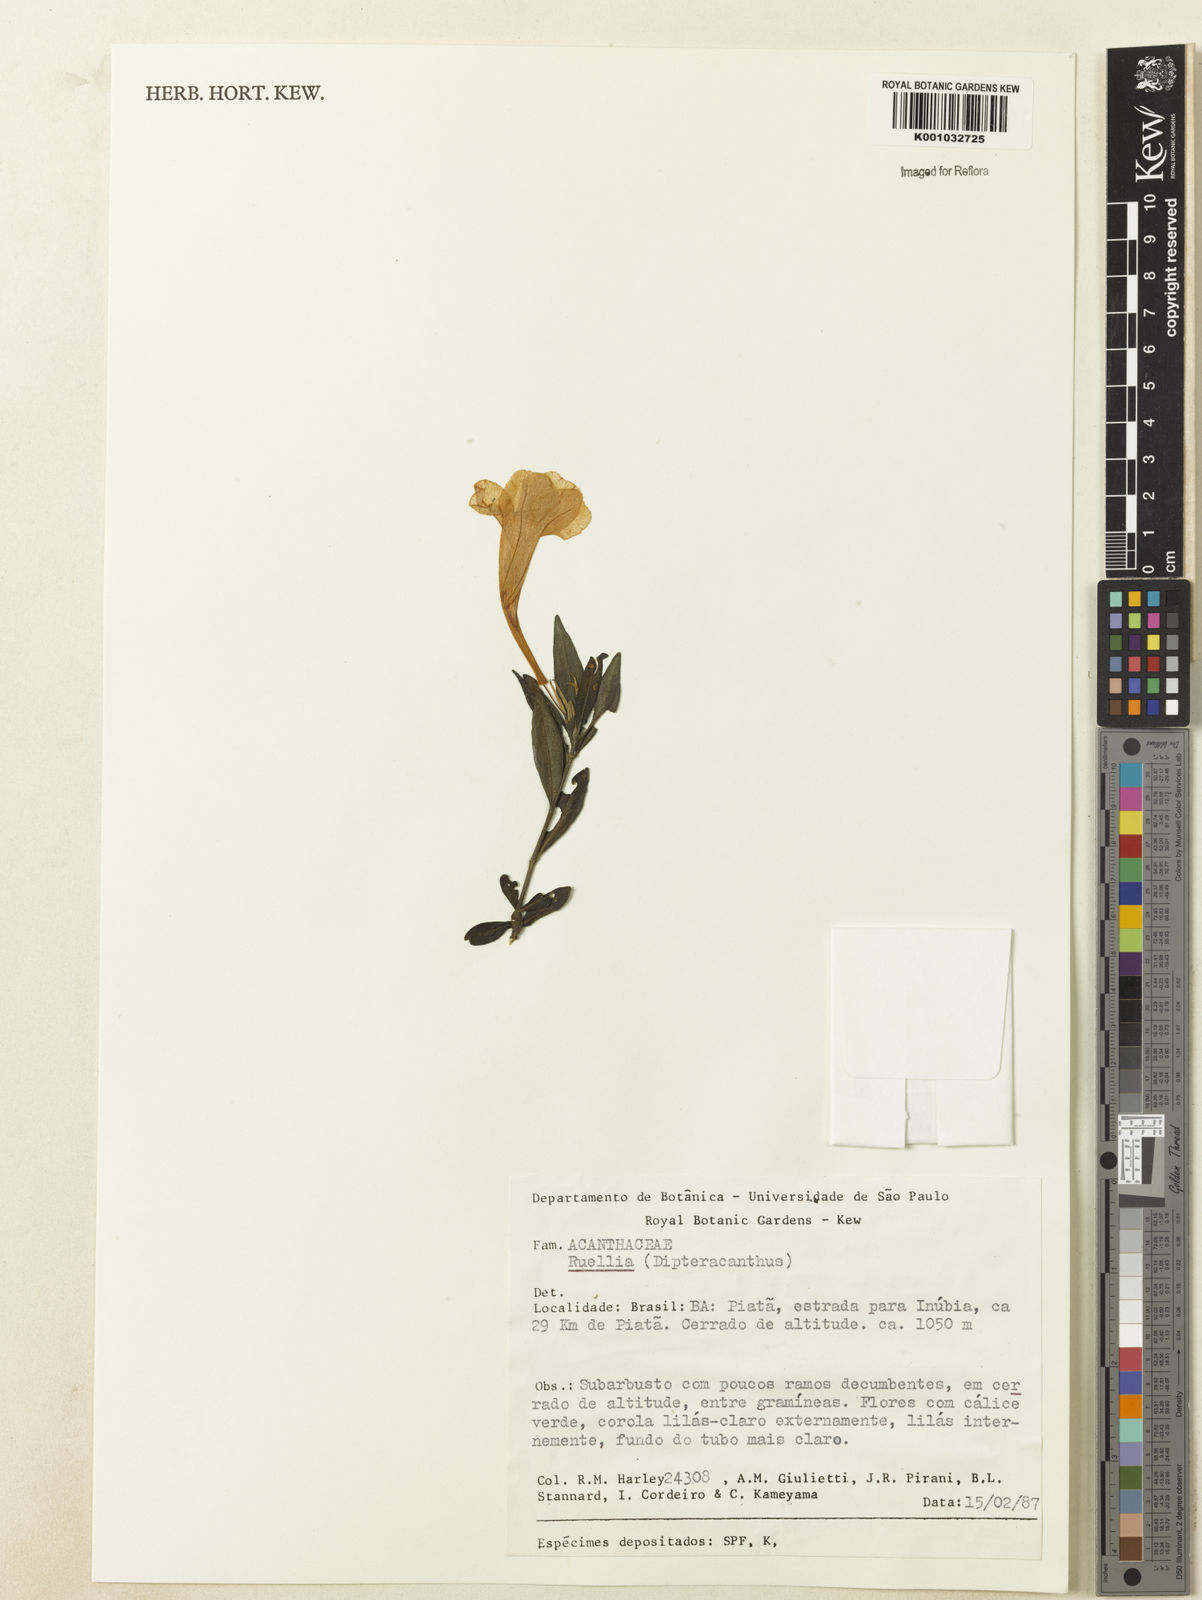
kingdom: Plantae
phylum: Tracheophyta
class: Magnoliopsida
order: Lamiales
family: Acanthaceae
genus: Ruellia
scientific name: Ruellia
